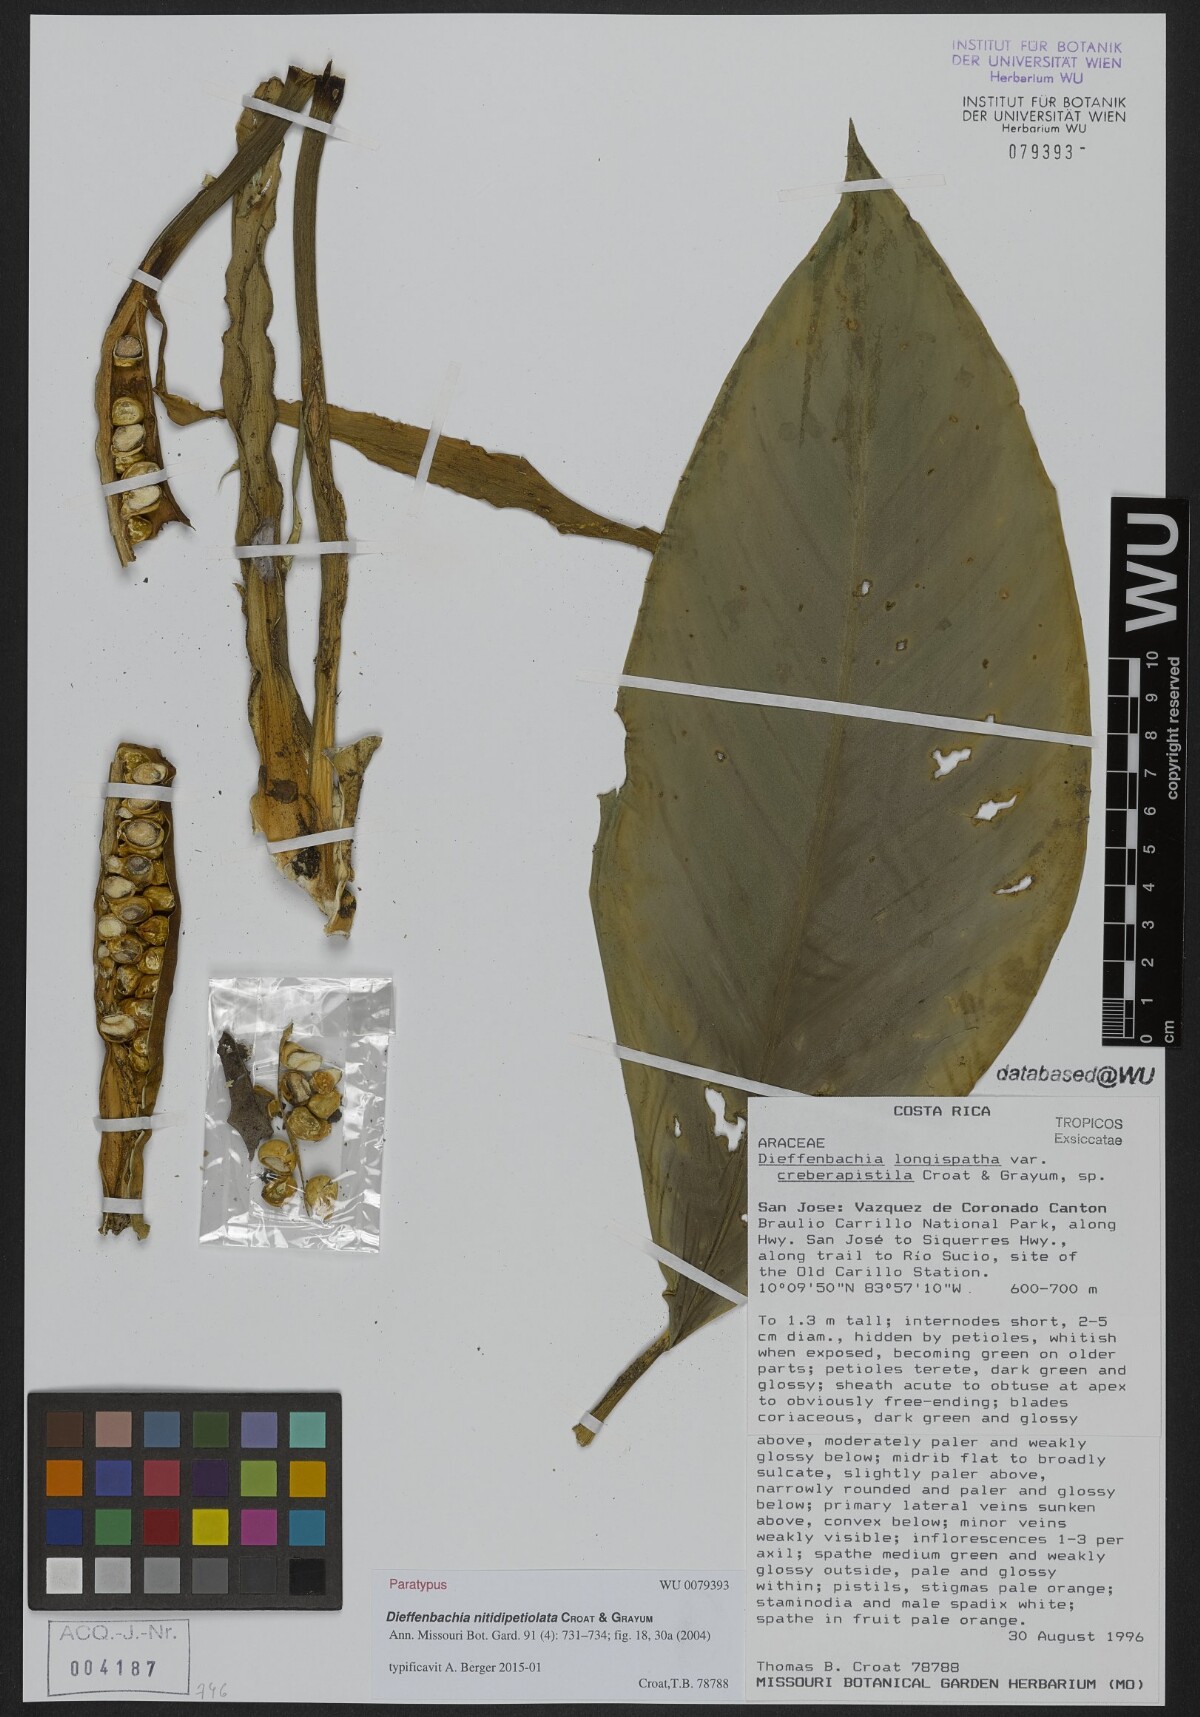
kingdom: Plantae
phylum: Tracheophyta
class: Liliopsida
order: Alismatales
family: Araceae
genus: Dieffenbachia
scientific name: Dieffenbachia nitidipetiolata
